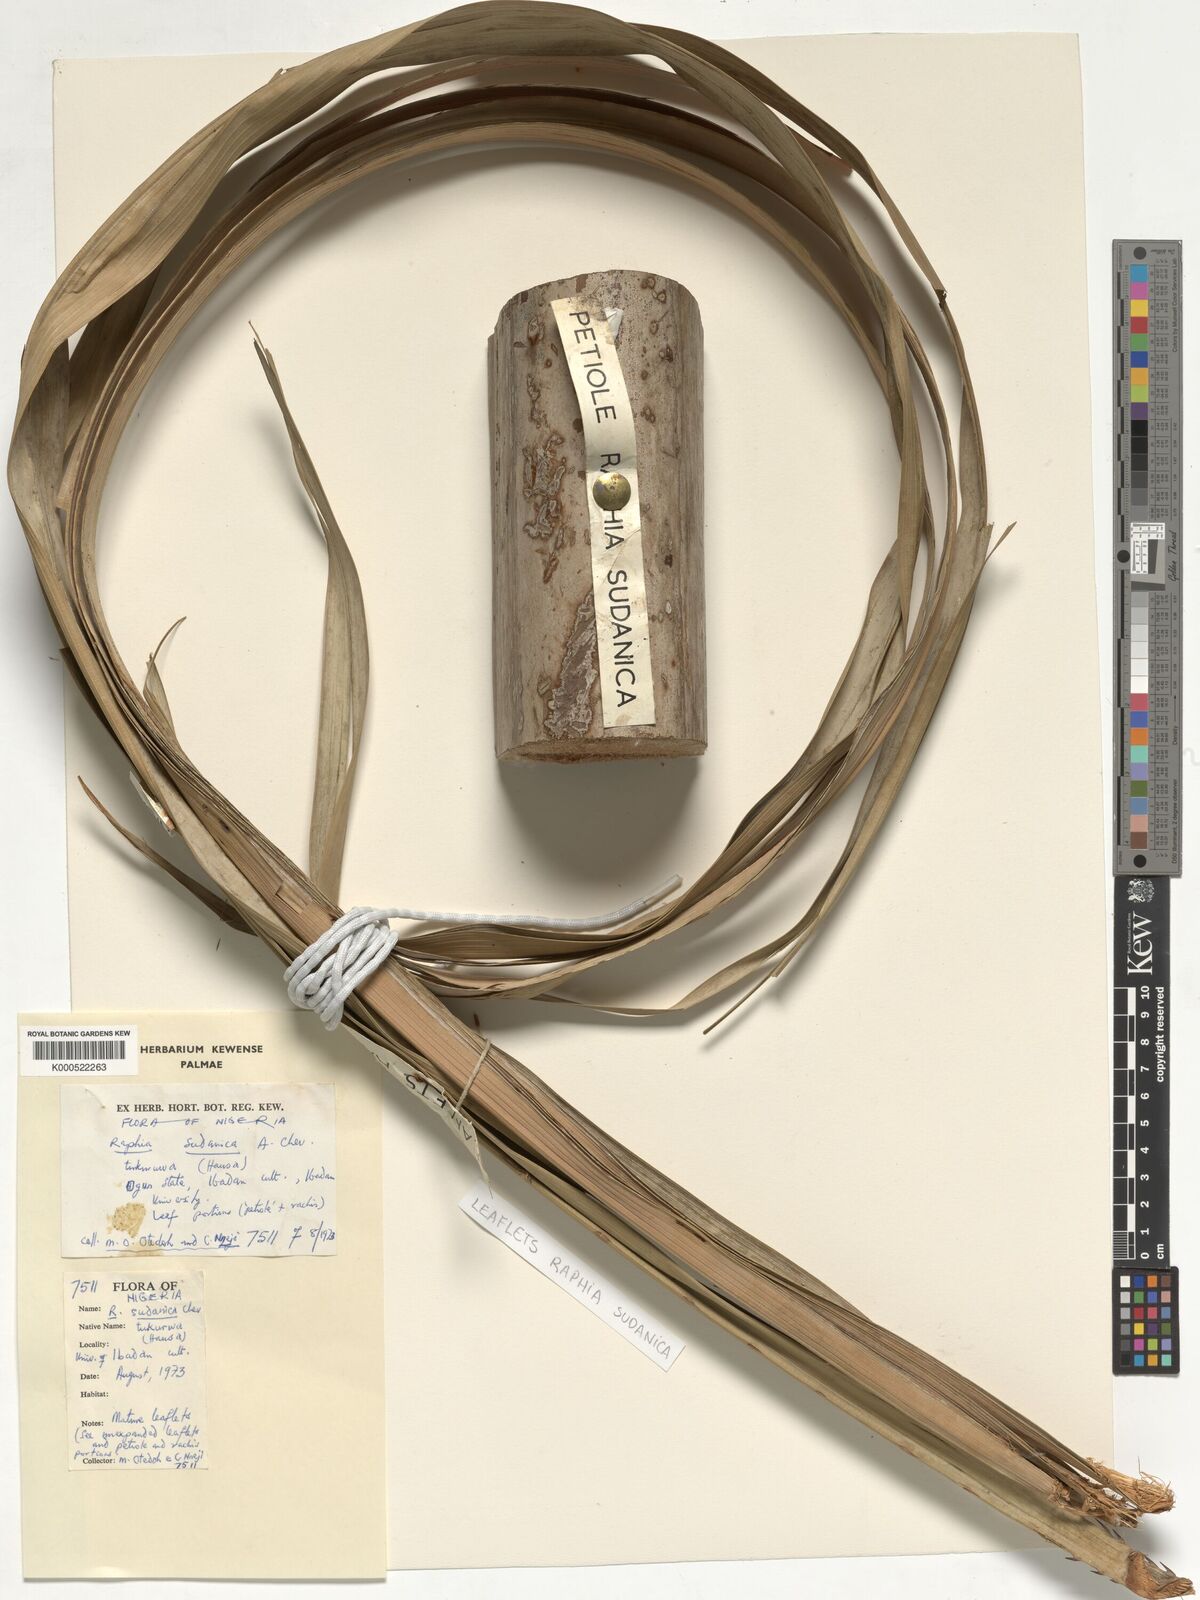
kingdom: Plantae
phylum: Tracheophyta
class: Liliopsida
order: Arecales
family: Arecaceae
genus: Raphia
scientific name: Raphia sudanica
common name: Northern raphia
